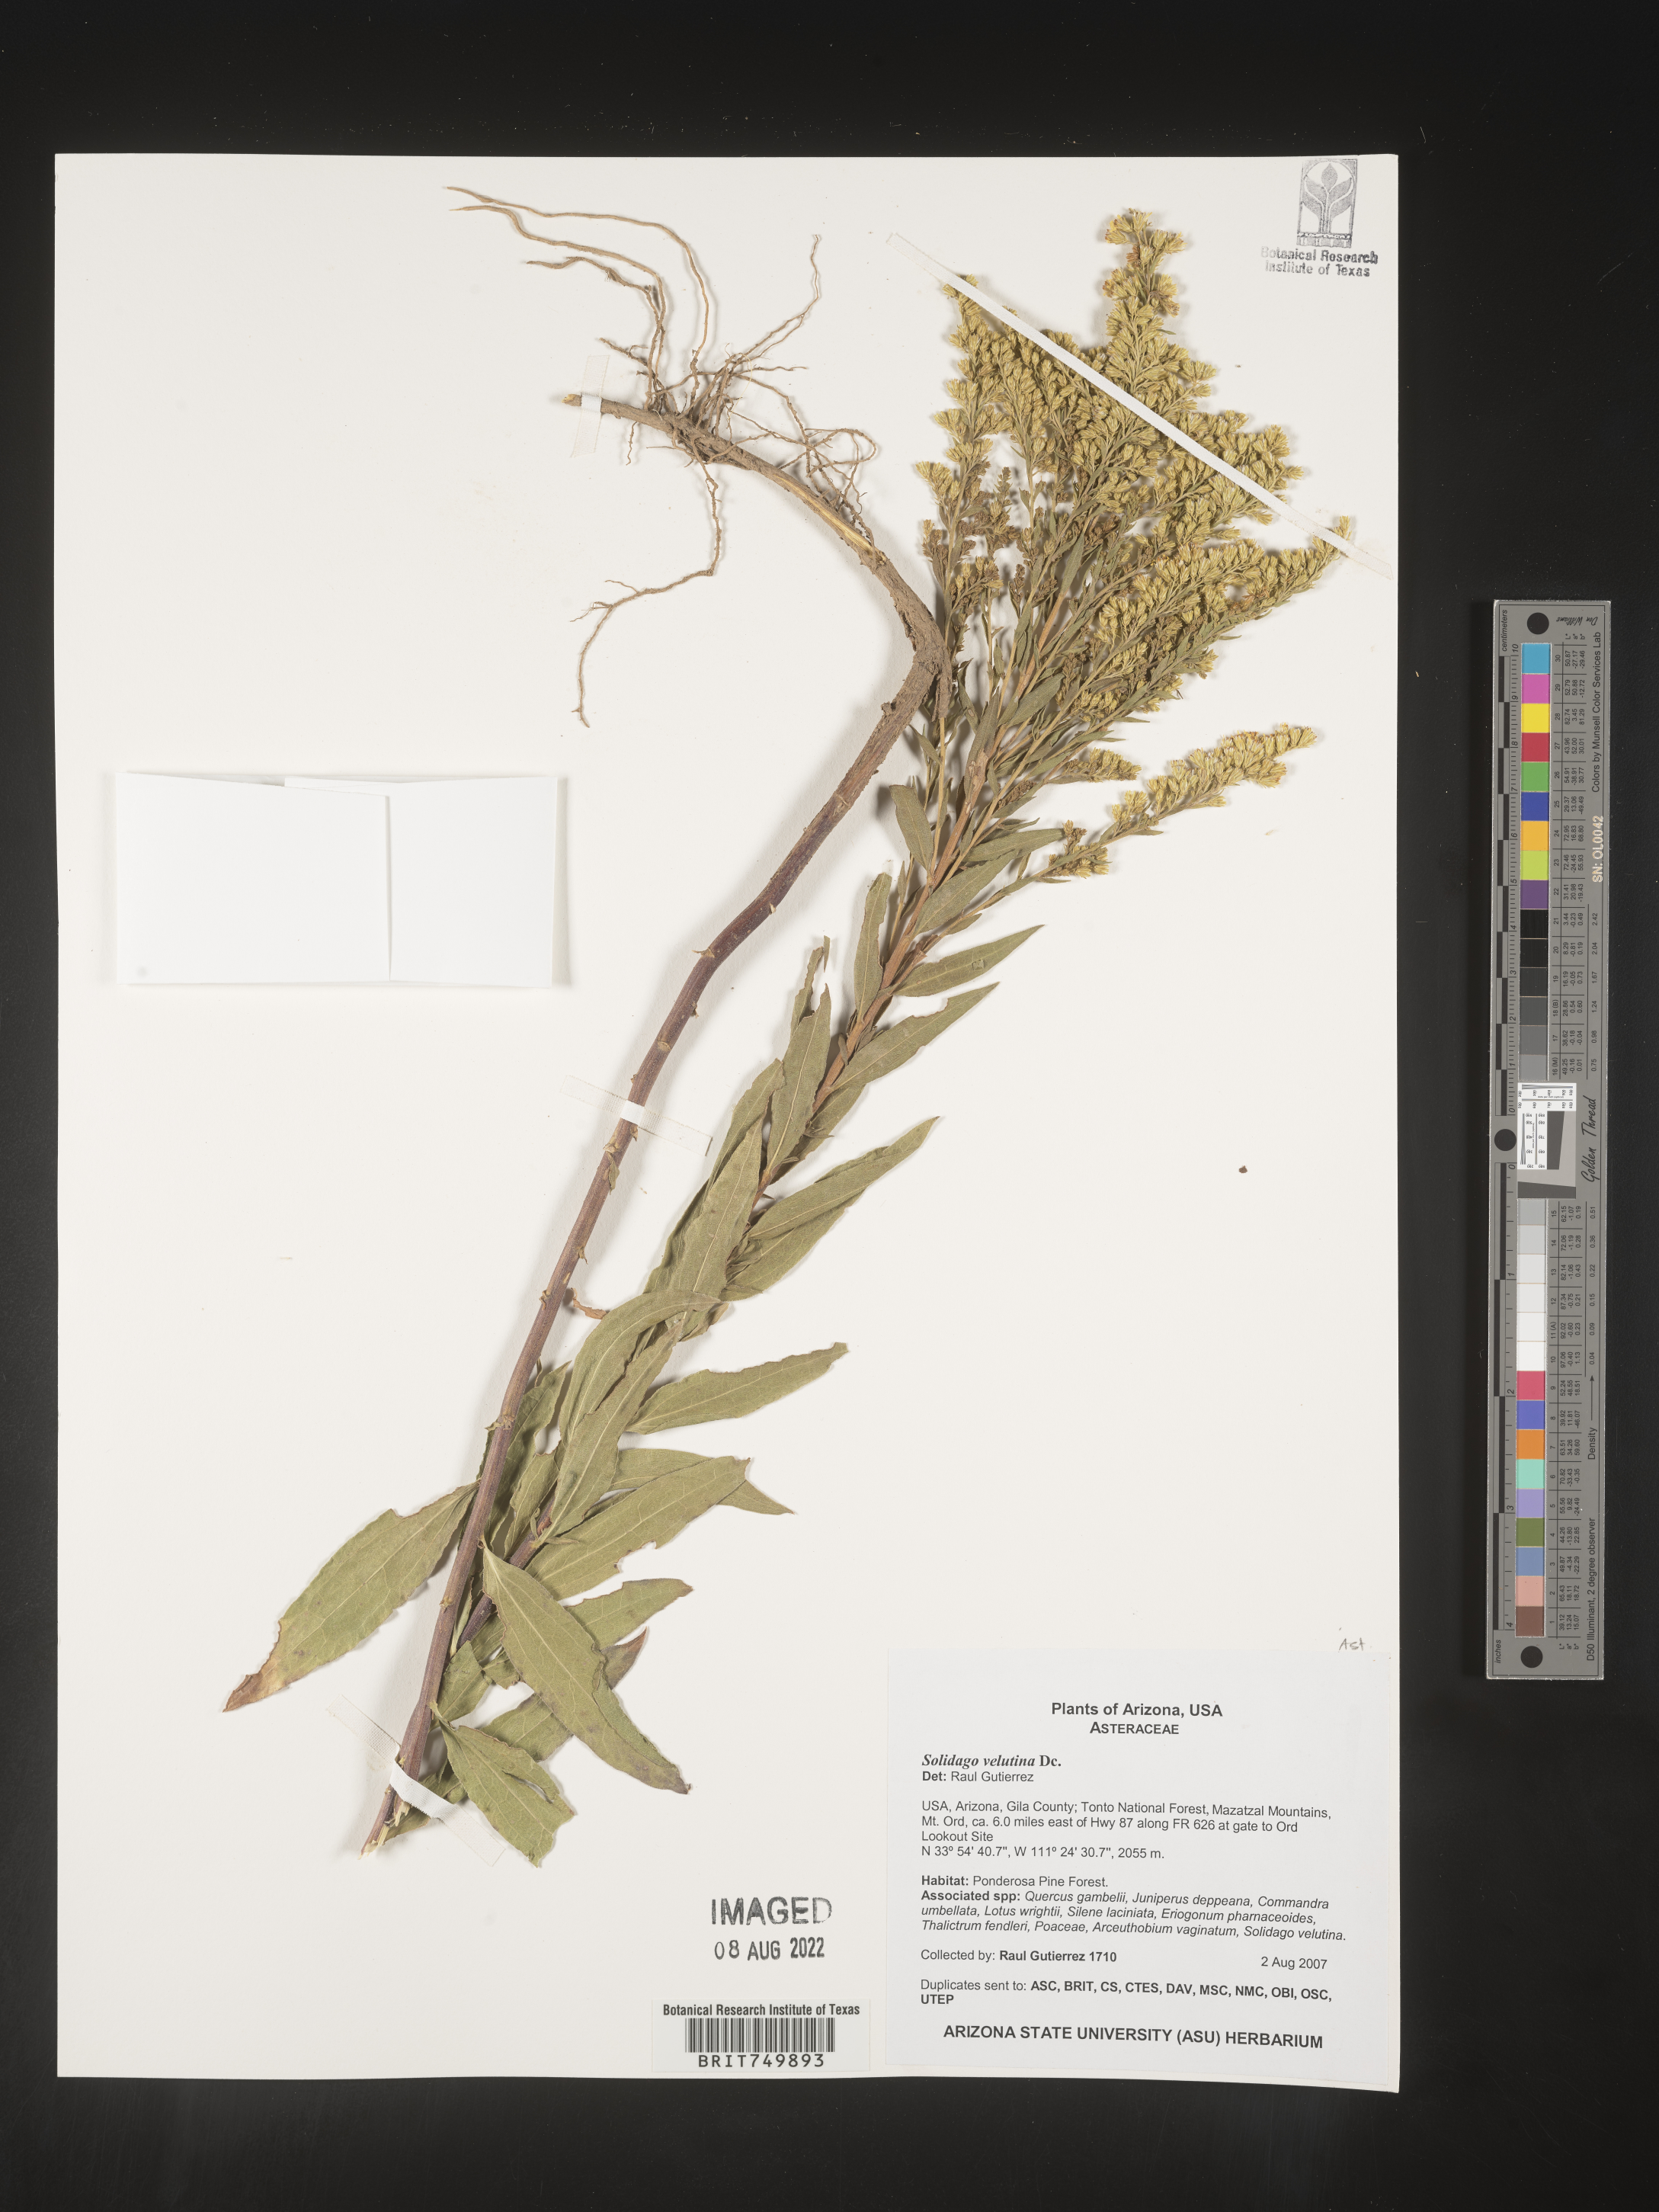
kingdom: Plantae
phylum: Tracheophyta
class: Magnoliopsida
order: Asterales
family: Asteraceae
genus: Solidago
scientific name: Solidago velutina
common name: Three-nerve goldenrod
